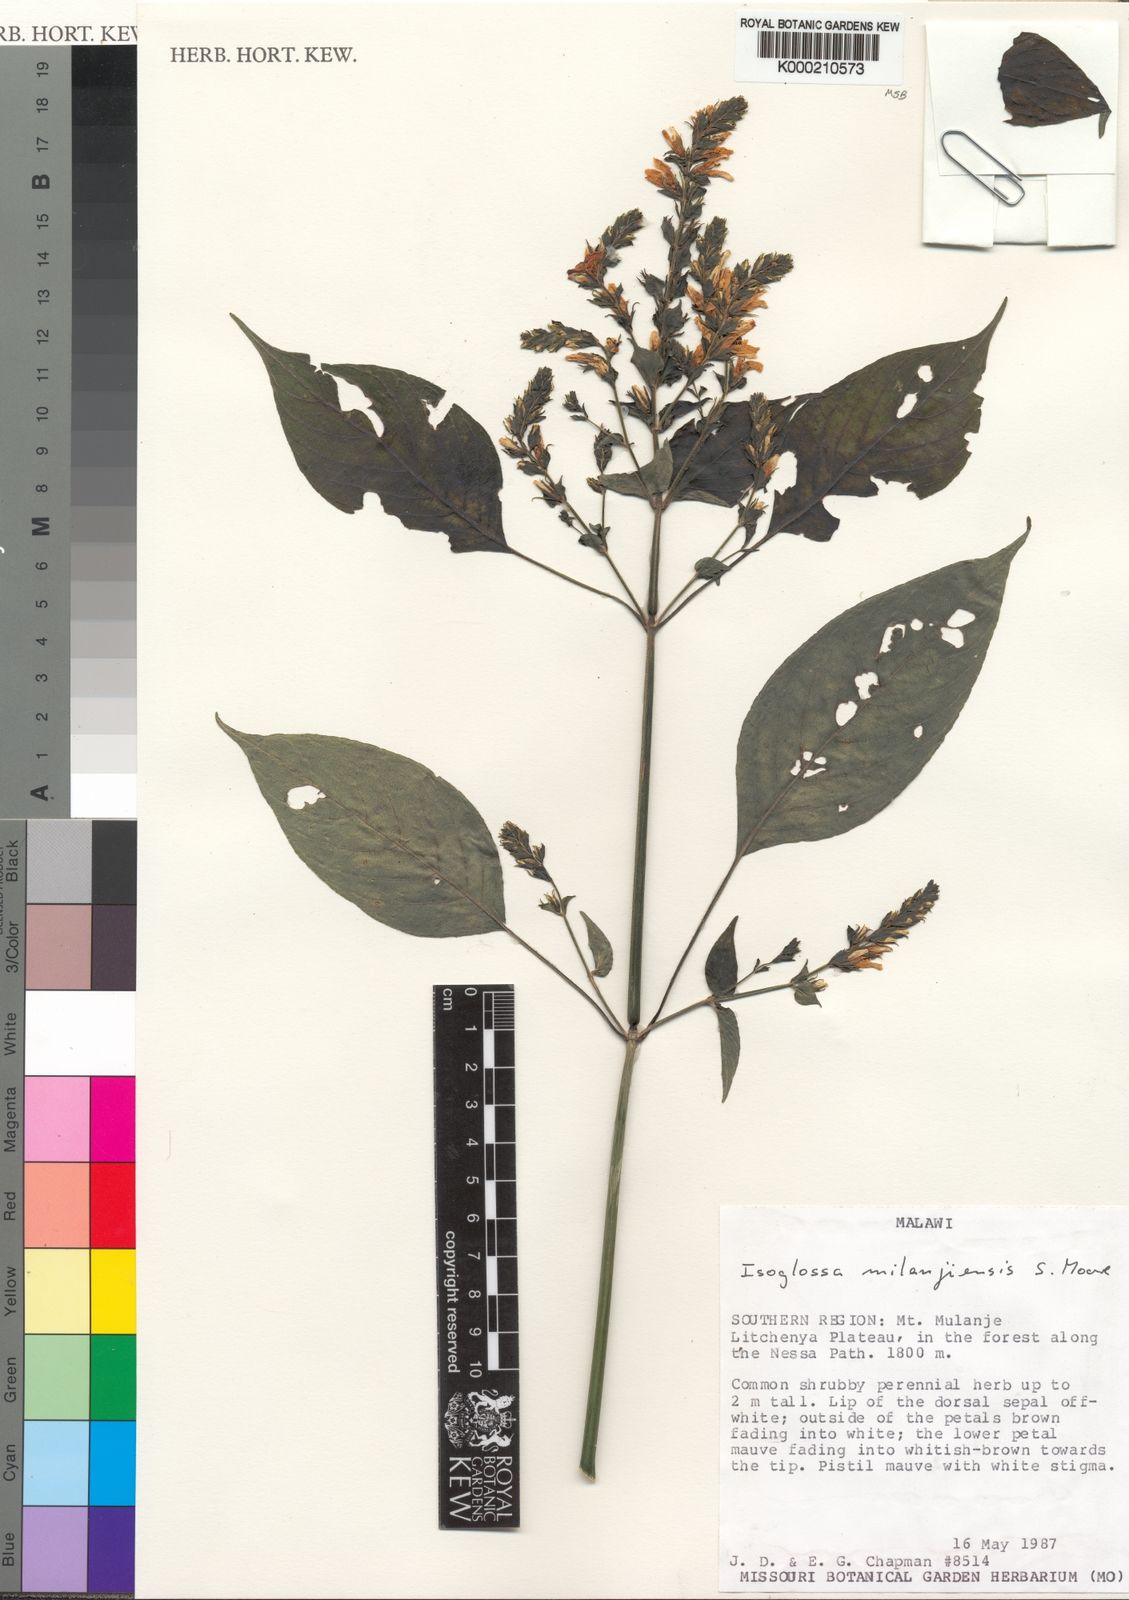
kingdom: Plantae
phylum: Tracheophyta
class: Magnoliopsida
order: Lamiales
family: Acanthaceae
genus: Isoglossa
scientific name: Isoglossa milanjiensis
